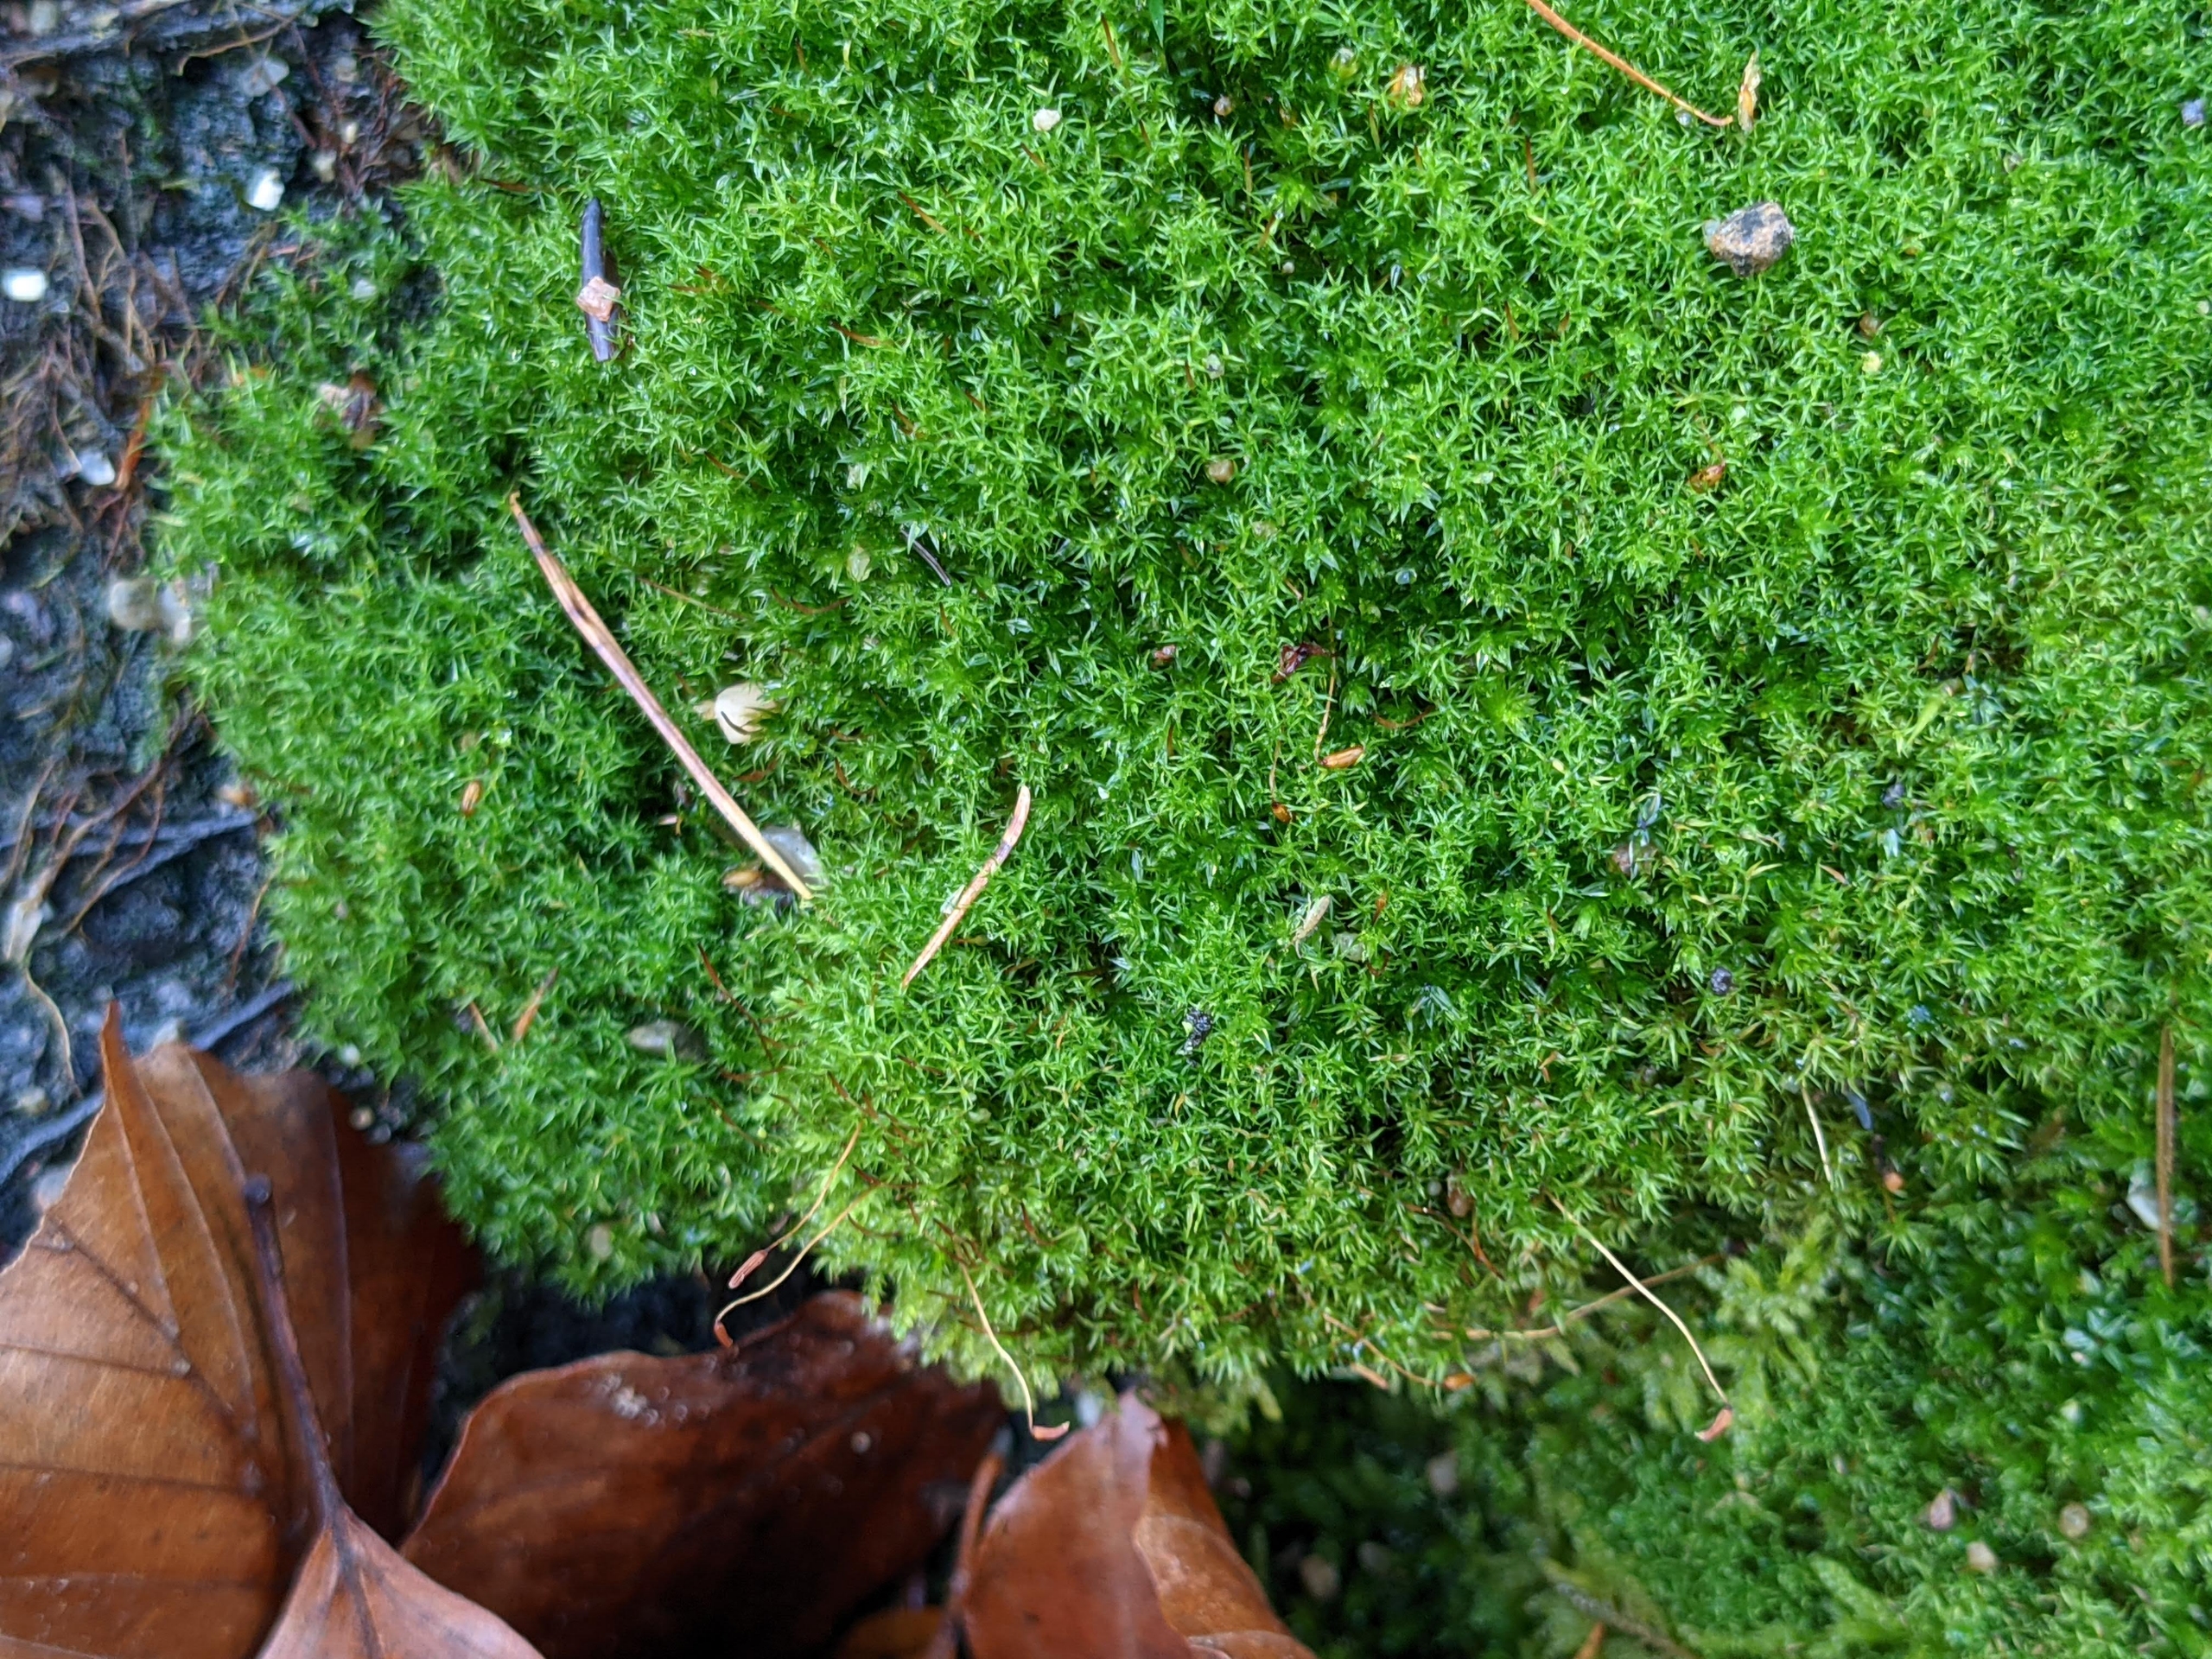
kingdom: Plantae
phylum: Bryophyta
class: Bryopsida
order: Dicranales
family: Ditrichaceae
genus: Ceratodon
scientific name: Ceratodon purpureus
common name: Rød horntand
